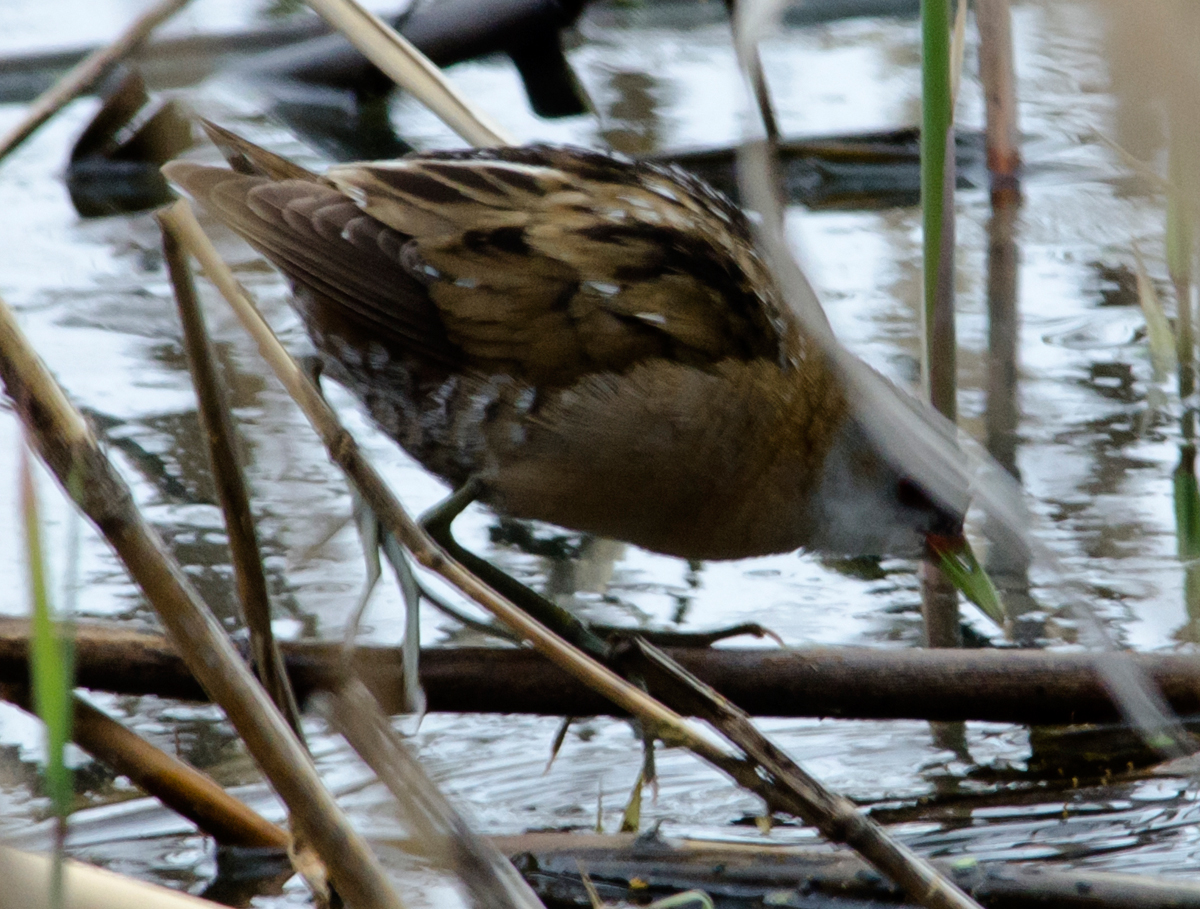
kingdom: Animalia
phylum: Chordata
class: Aves
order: Gruiformes
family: Rallidae
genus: Porzana
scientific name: Porzana pusilla
